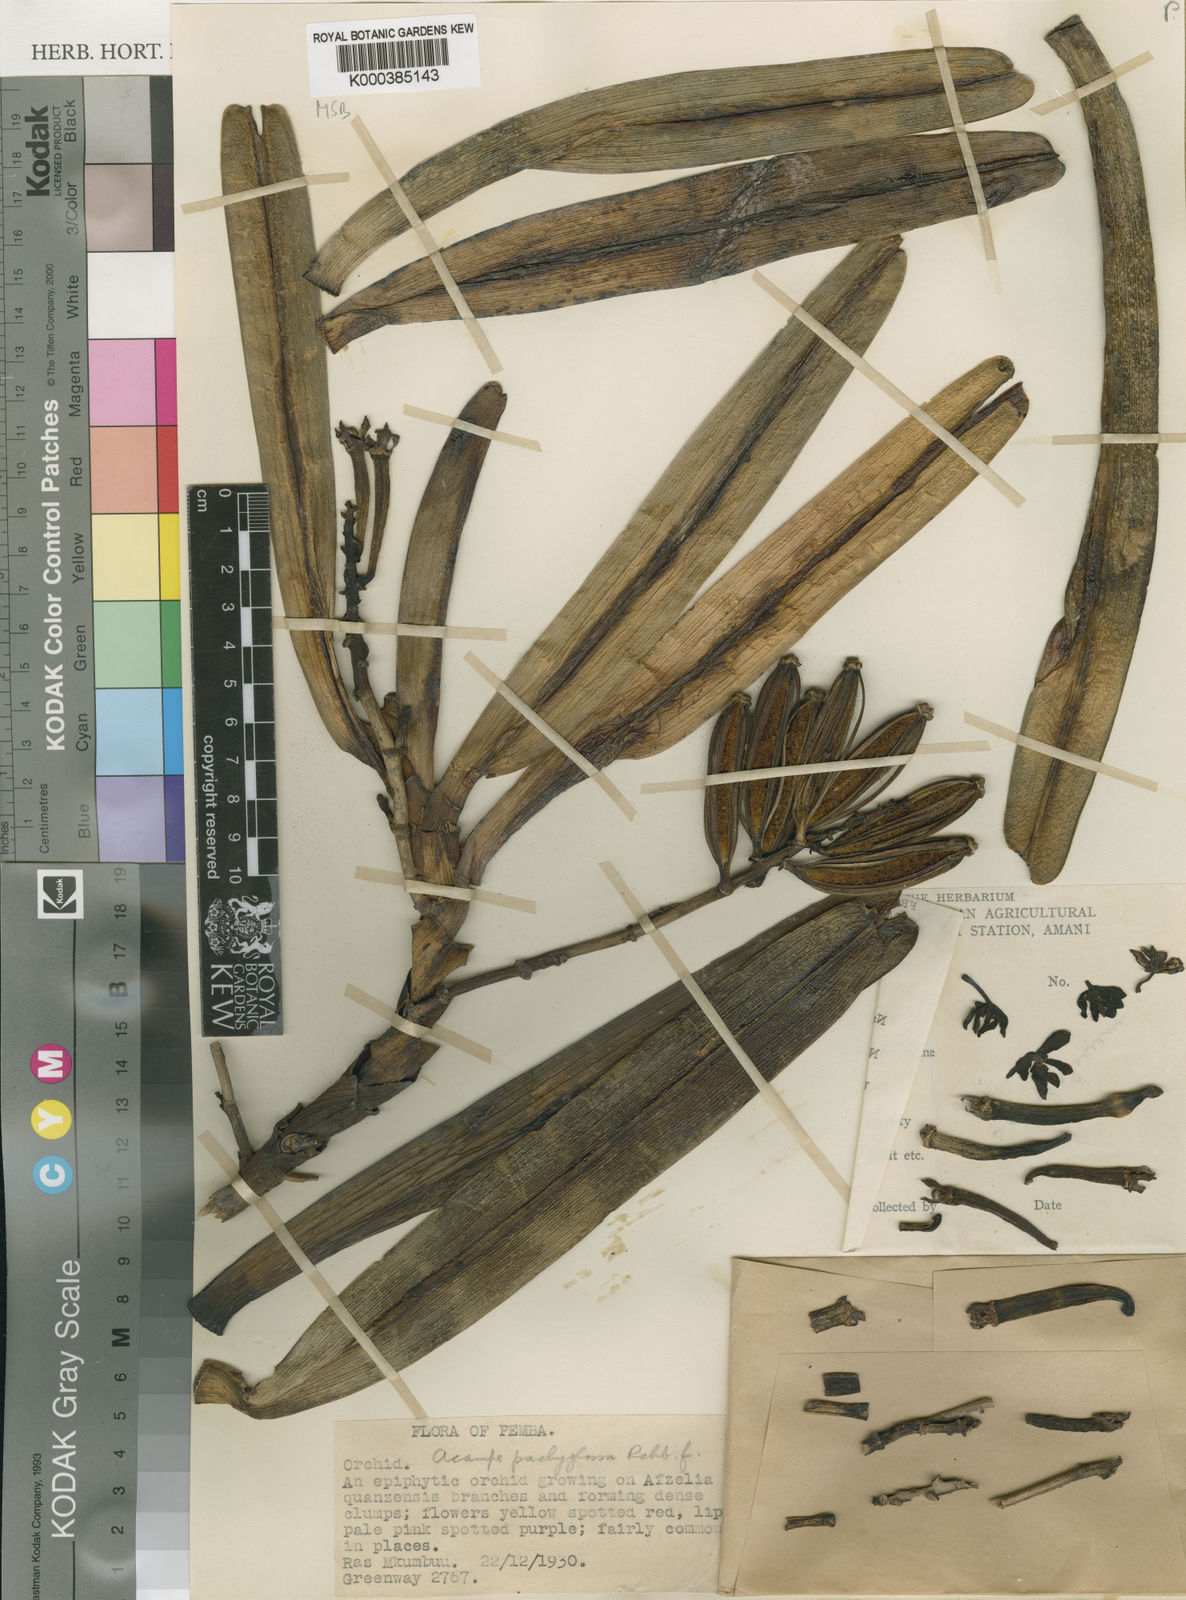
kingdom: Plantae
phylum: Tracheophyta
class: Liliopsida
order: Asparagales
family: Orchidaceae
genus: Acampe
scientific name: Acampe pachyglossa
